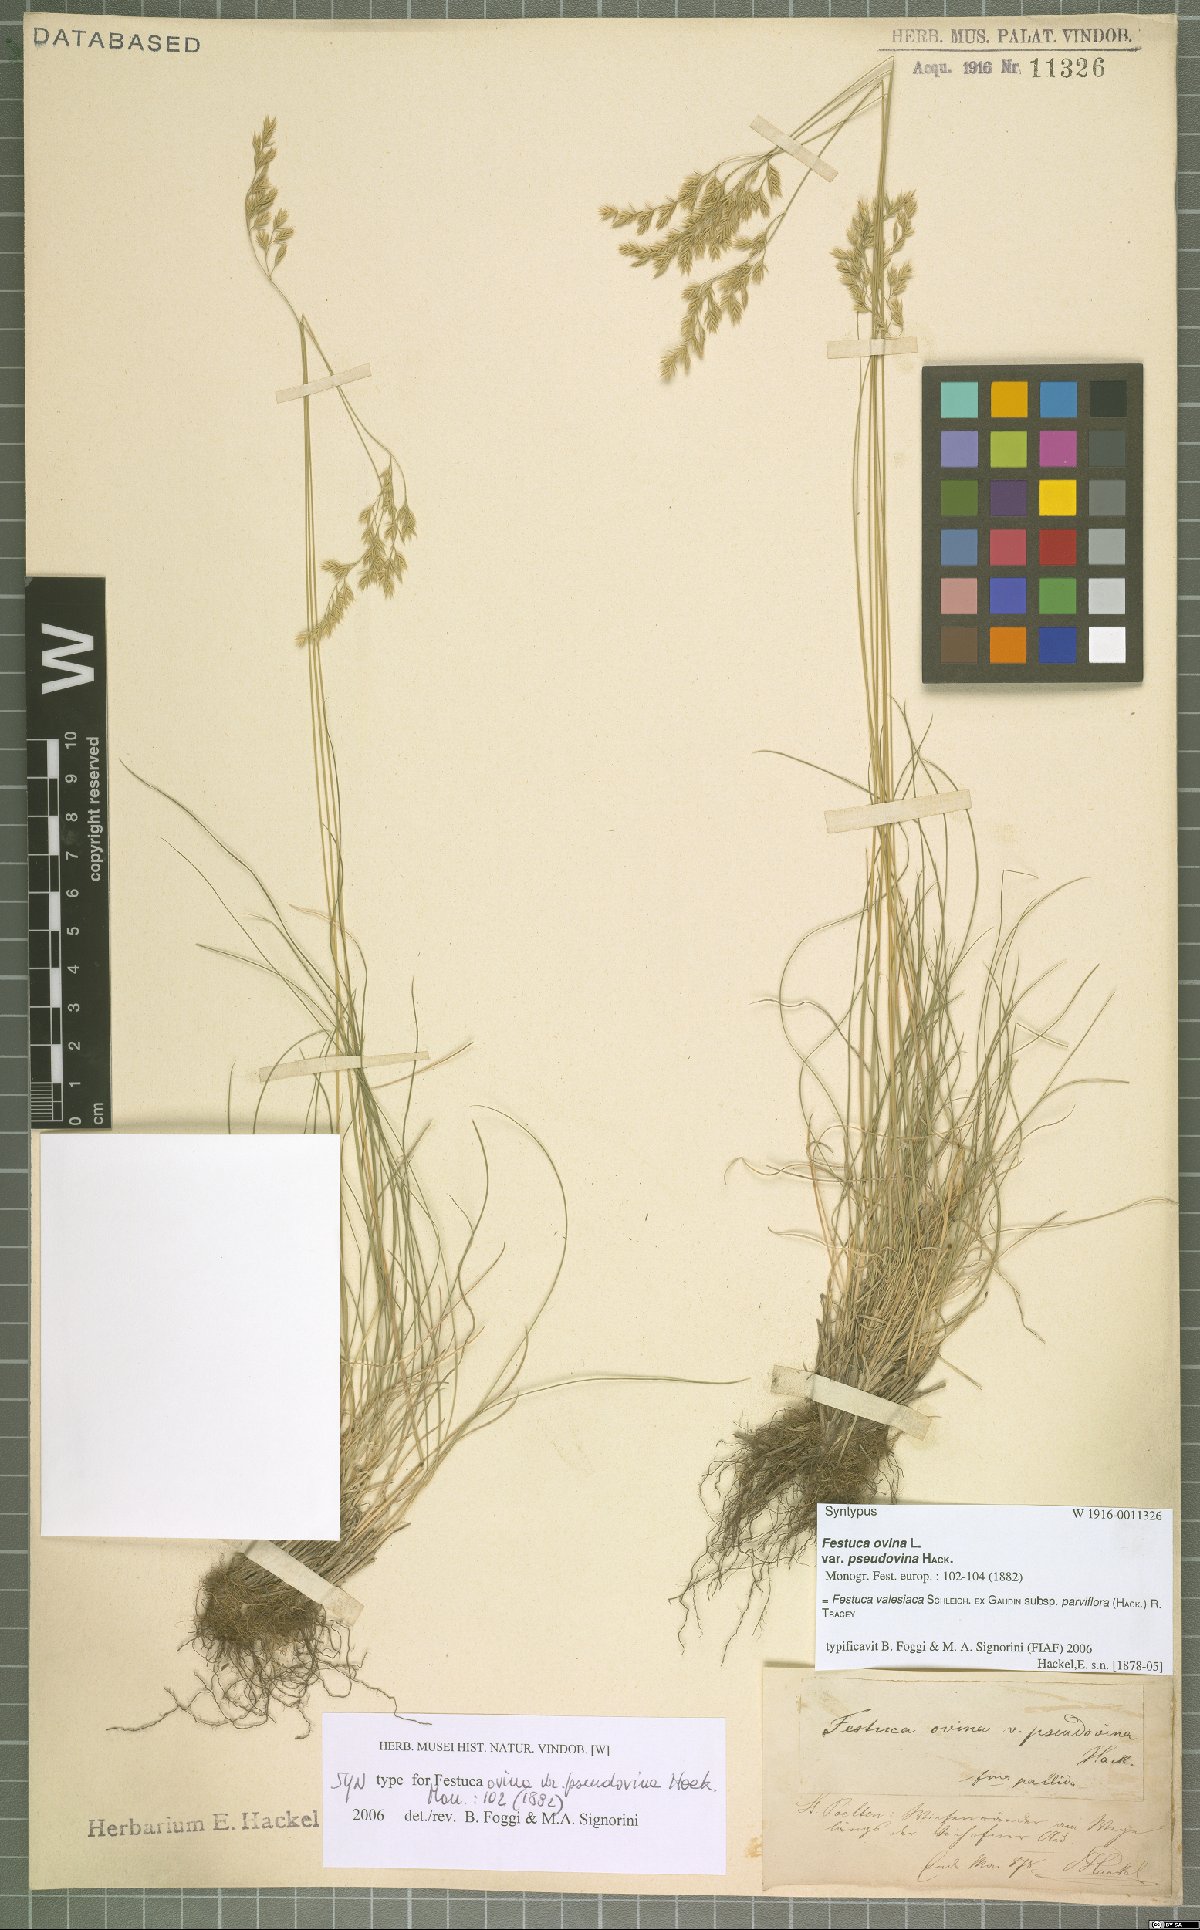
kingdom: Plantae
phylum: Tracheophyta
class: Liliopsida
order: Poales
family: Poaceae
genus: Festuca
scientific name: Festuca pulchra
